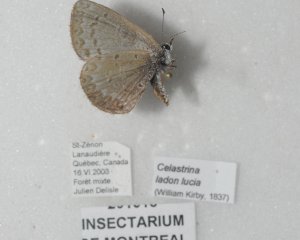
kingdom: Animalia
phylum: Arthropoda
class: Insecta
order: Lepidoptera
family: Lycaenidae
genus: Celastrina
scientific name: Celastrina lucia
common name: Northern Spring Azure
